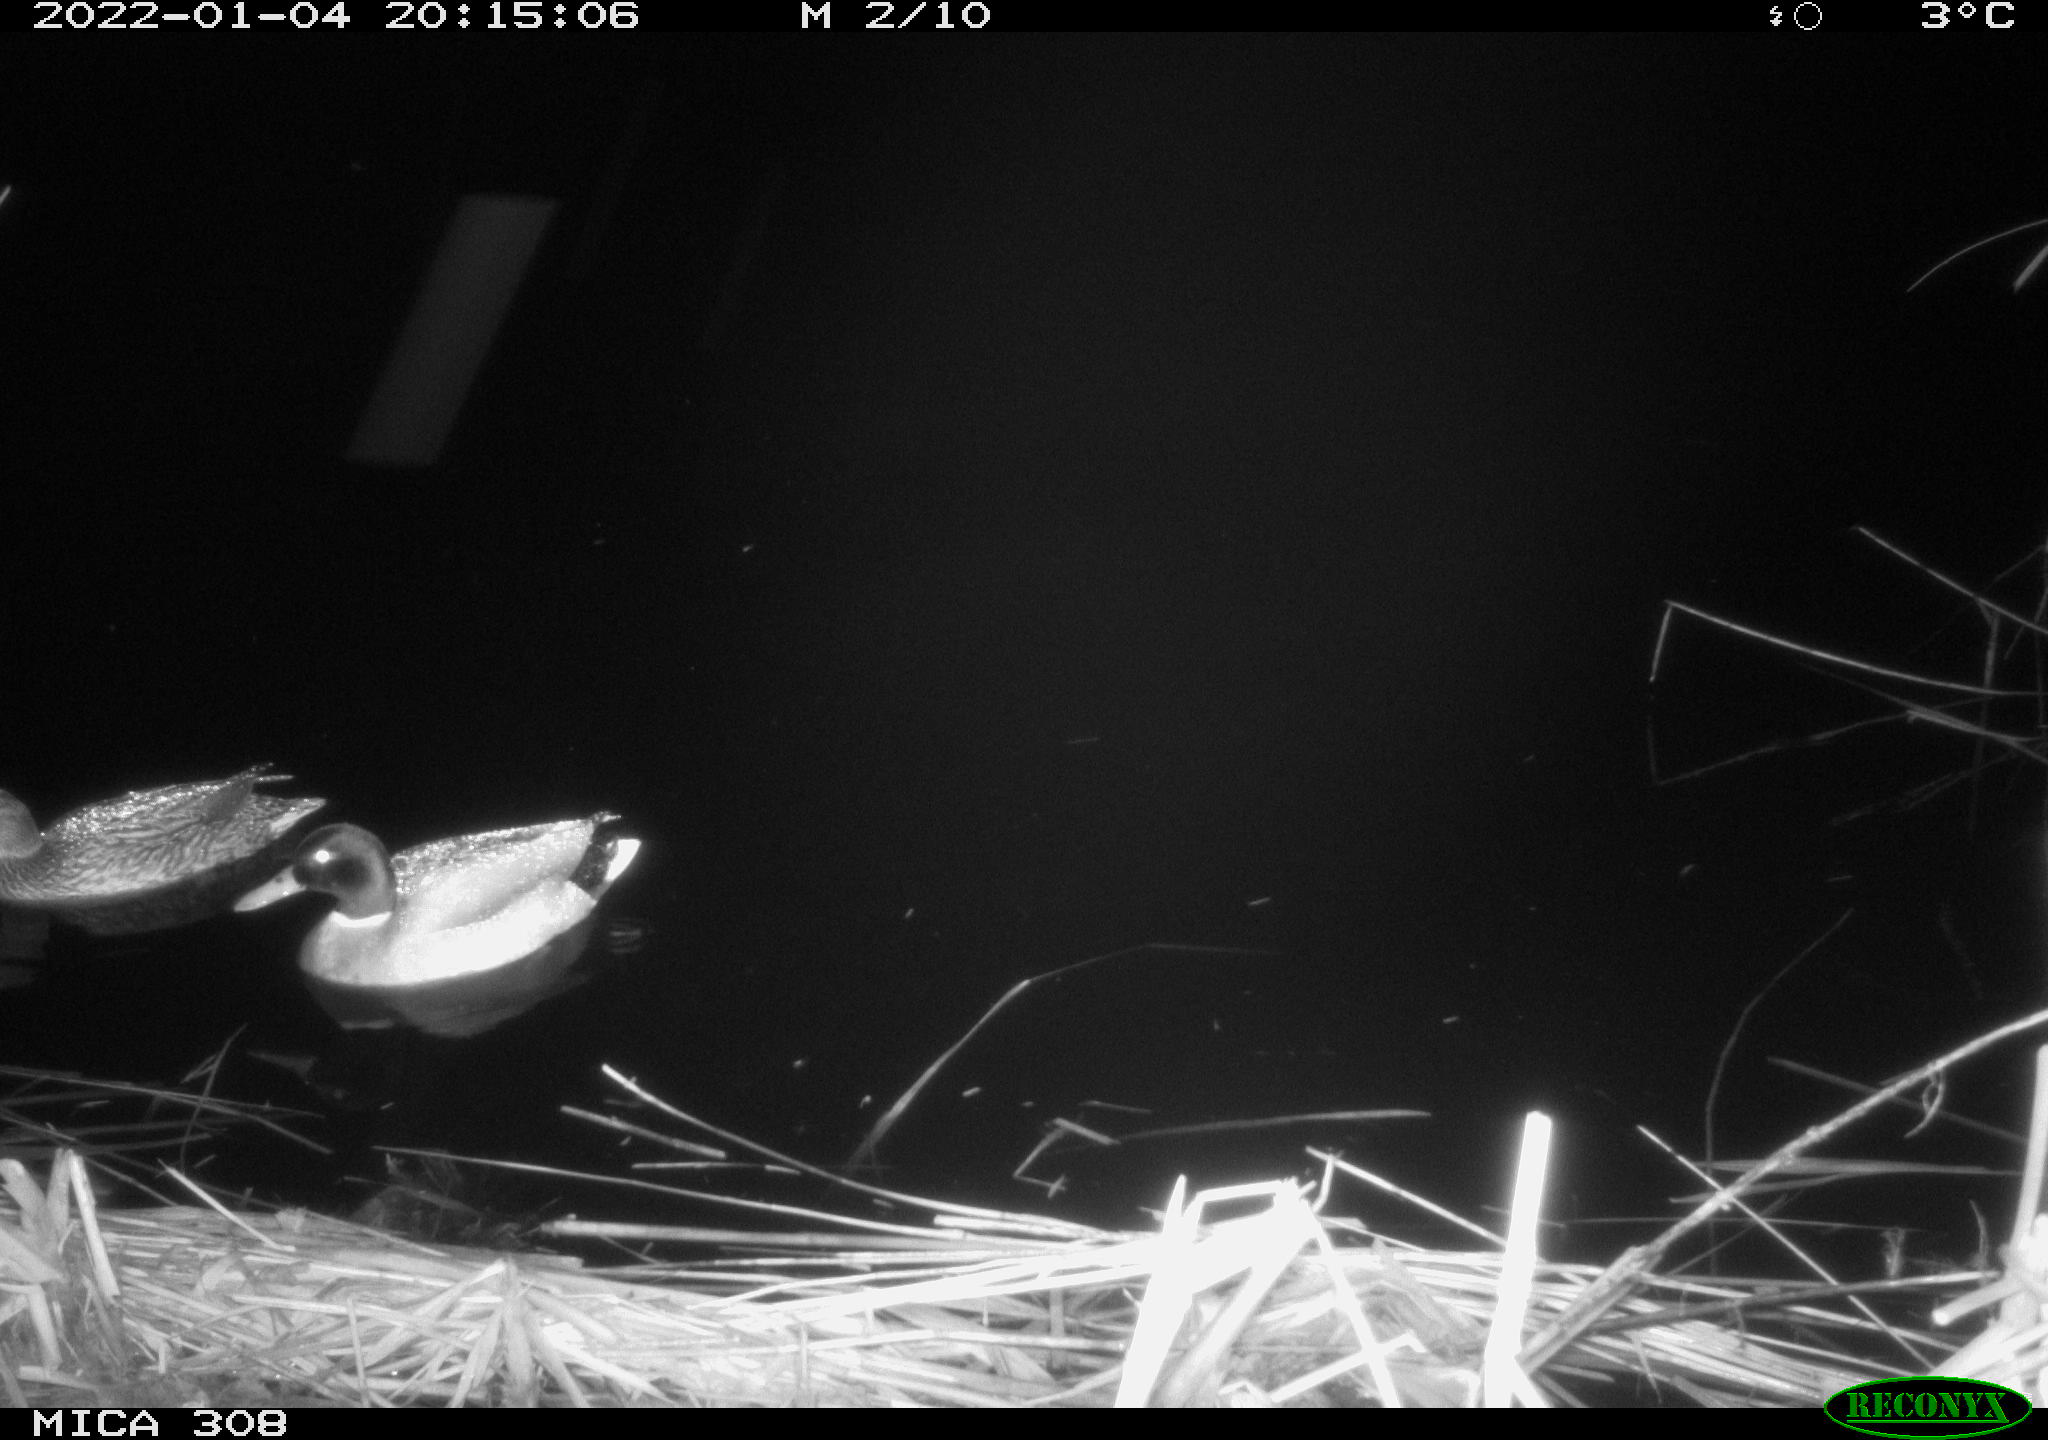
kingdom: Animalia
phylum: Chordata
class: Aves
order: Anseriformes
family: Anatidae
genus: Anas
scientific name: Anas platyrhynchos
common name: Mallard
